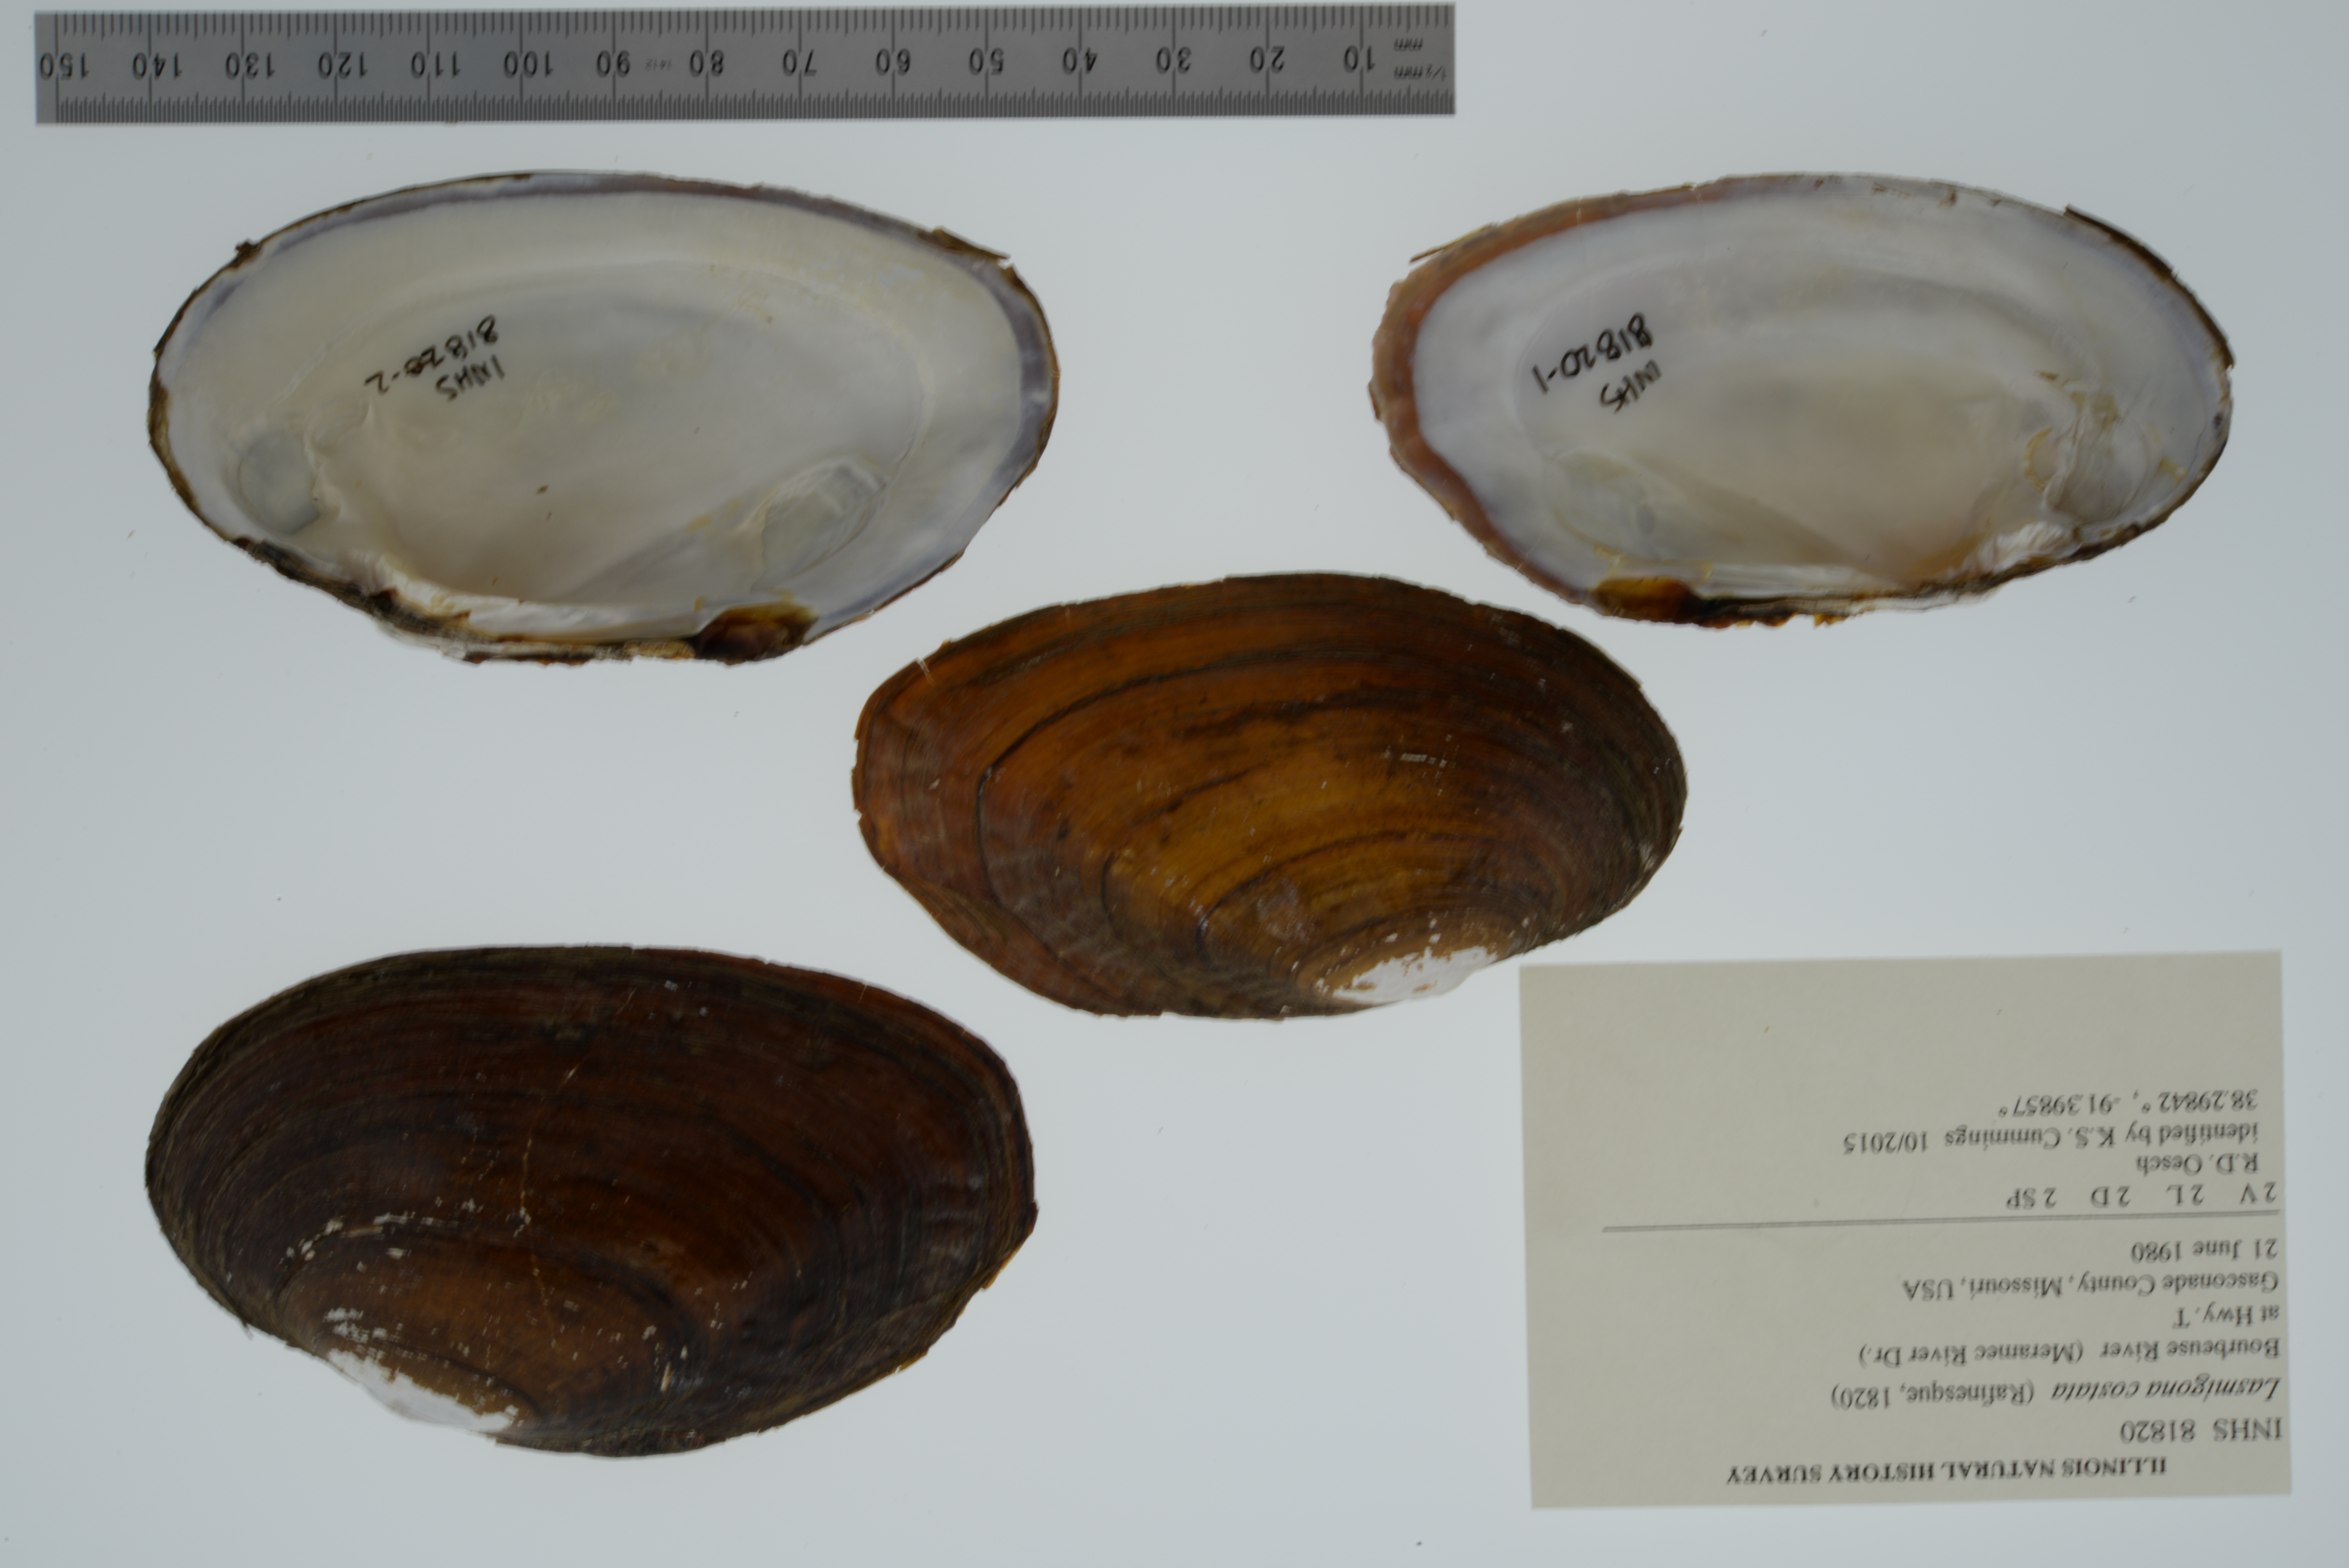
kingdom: Animalia
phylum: Mollusca
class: Bivalvia
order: Unionida
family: Unionidae
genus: Lasmigona
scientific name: Lasmigona costata
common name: Flutedshell
